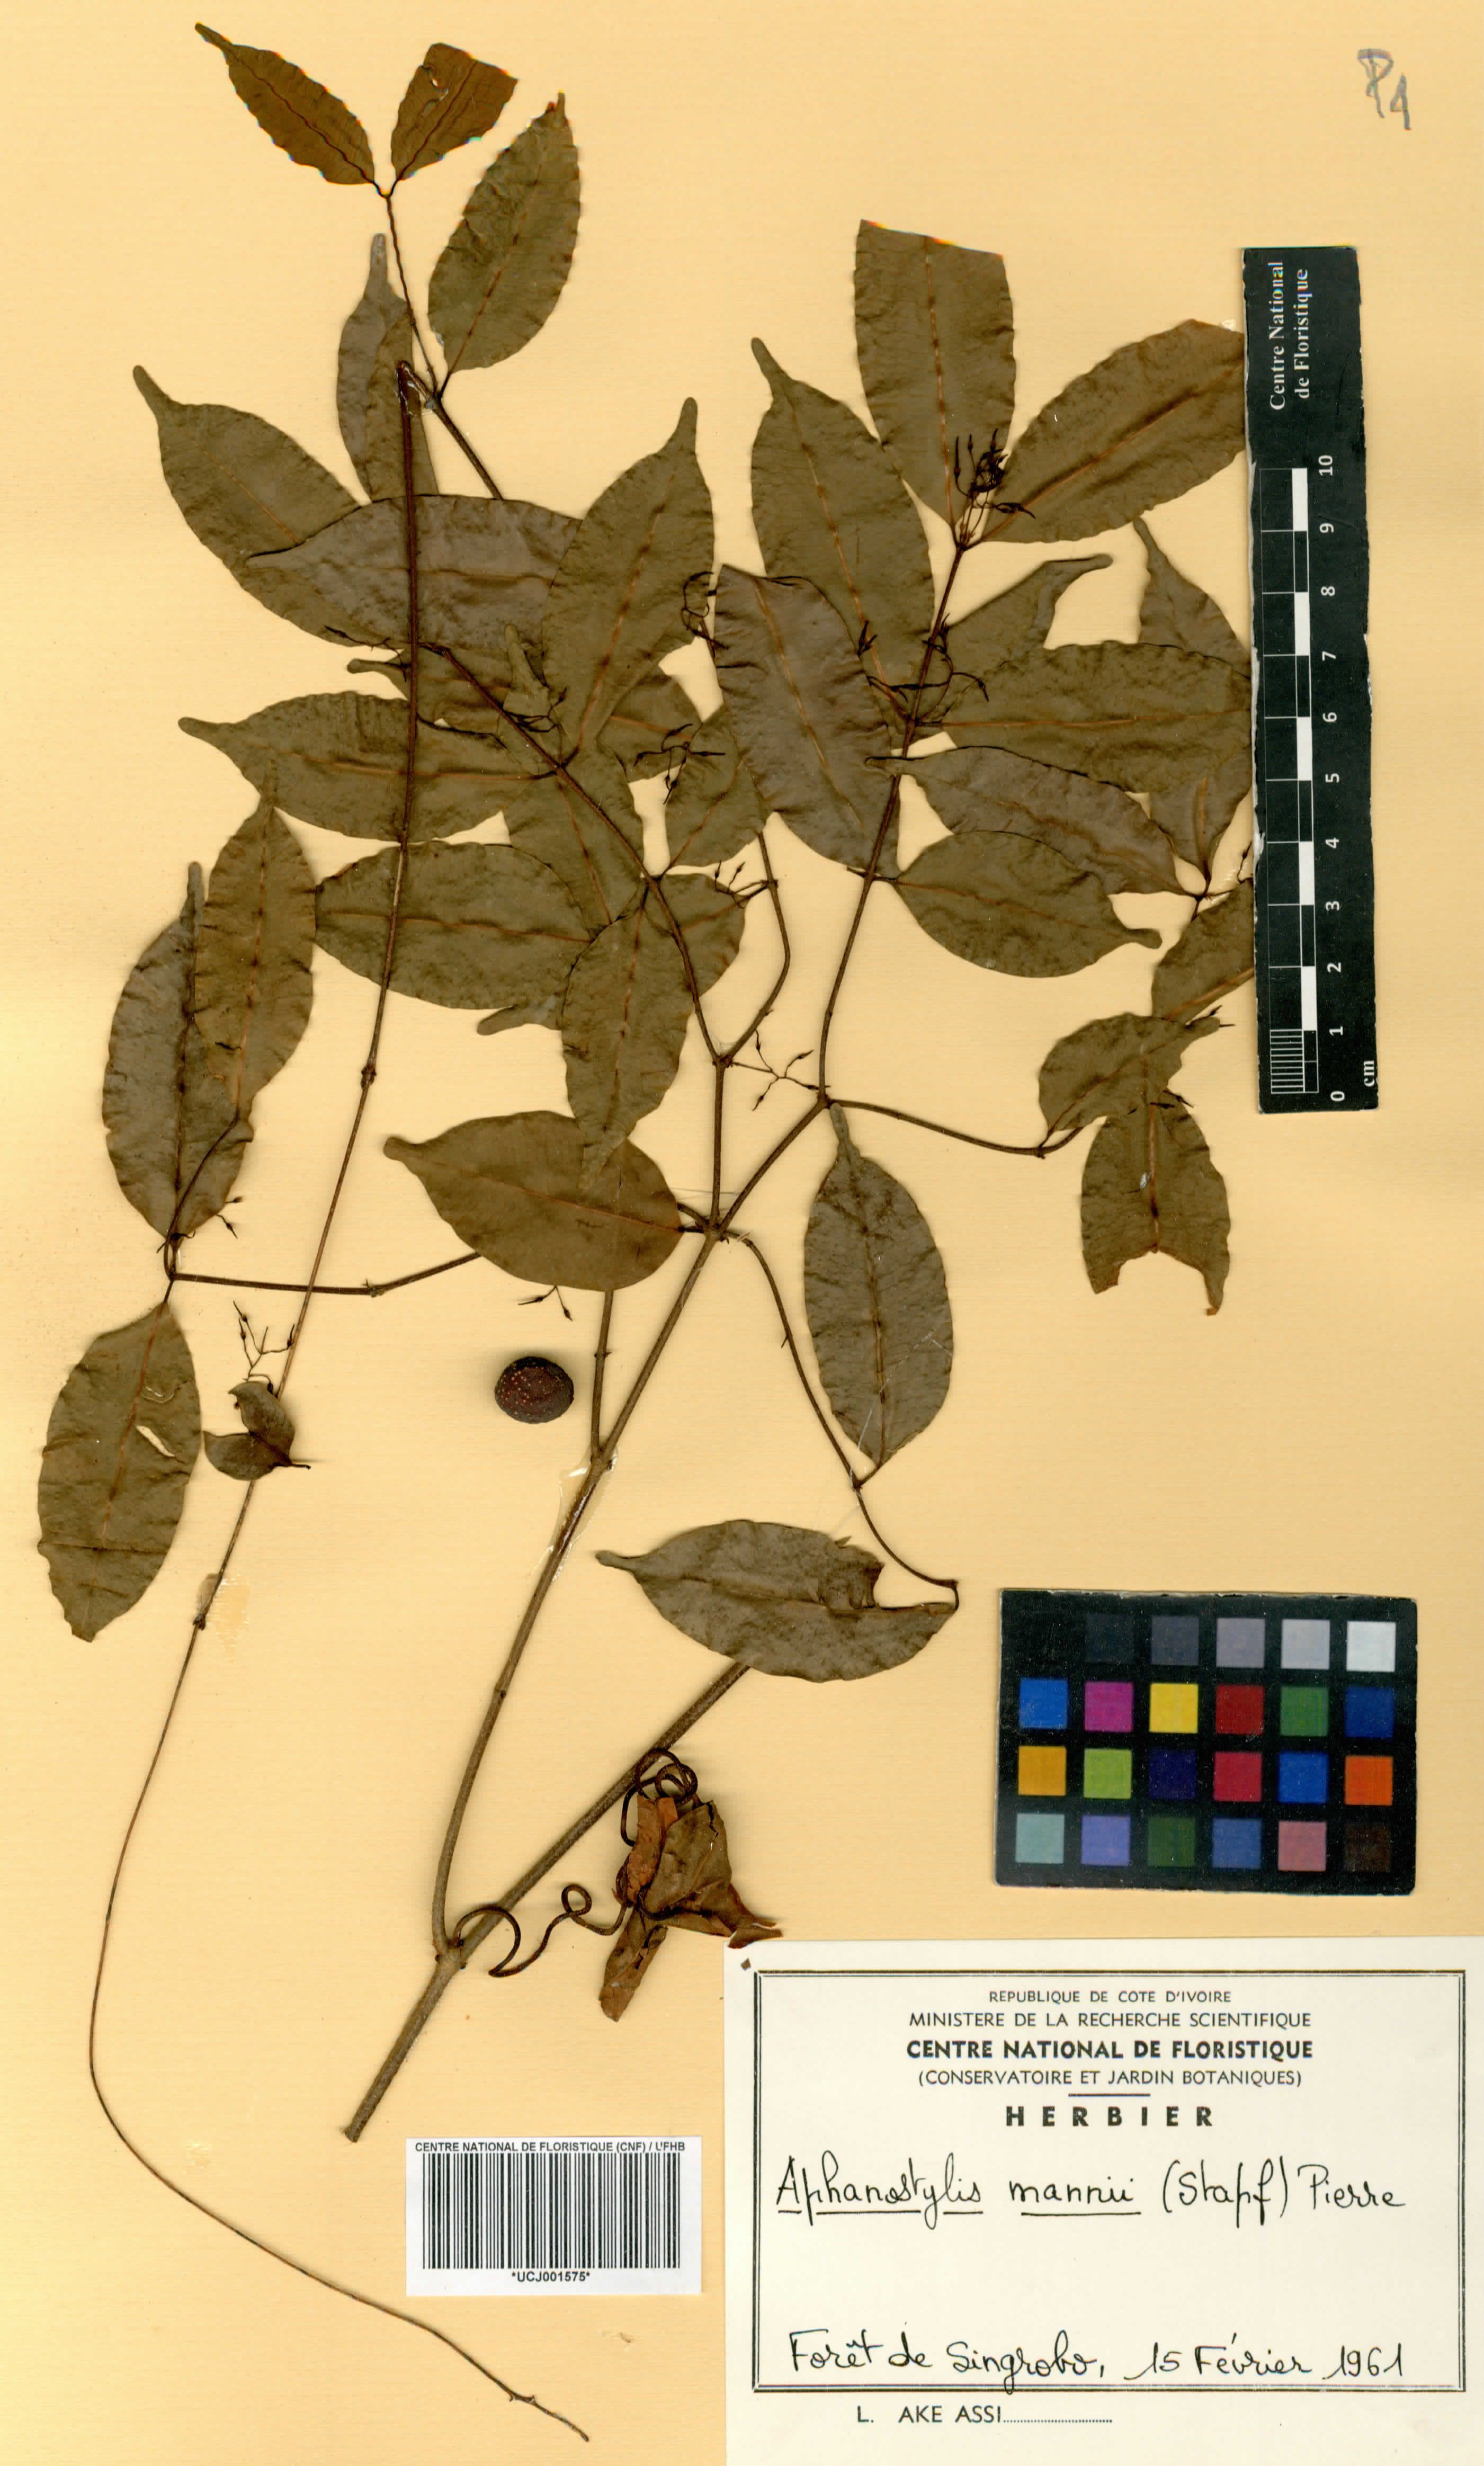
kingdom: Plantae
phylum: Tracheophyta
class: Magnoliopsida
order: Gentianales
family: Apocynaceae
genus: Landolphia
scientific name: Landolphia incerta
